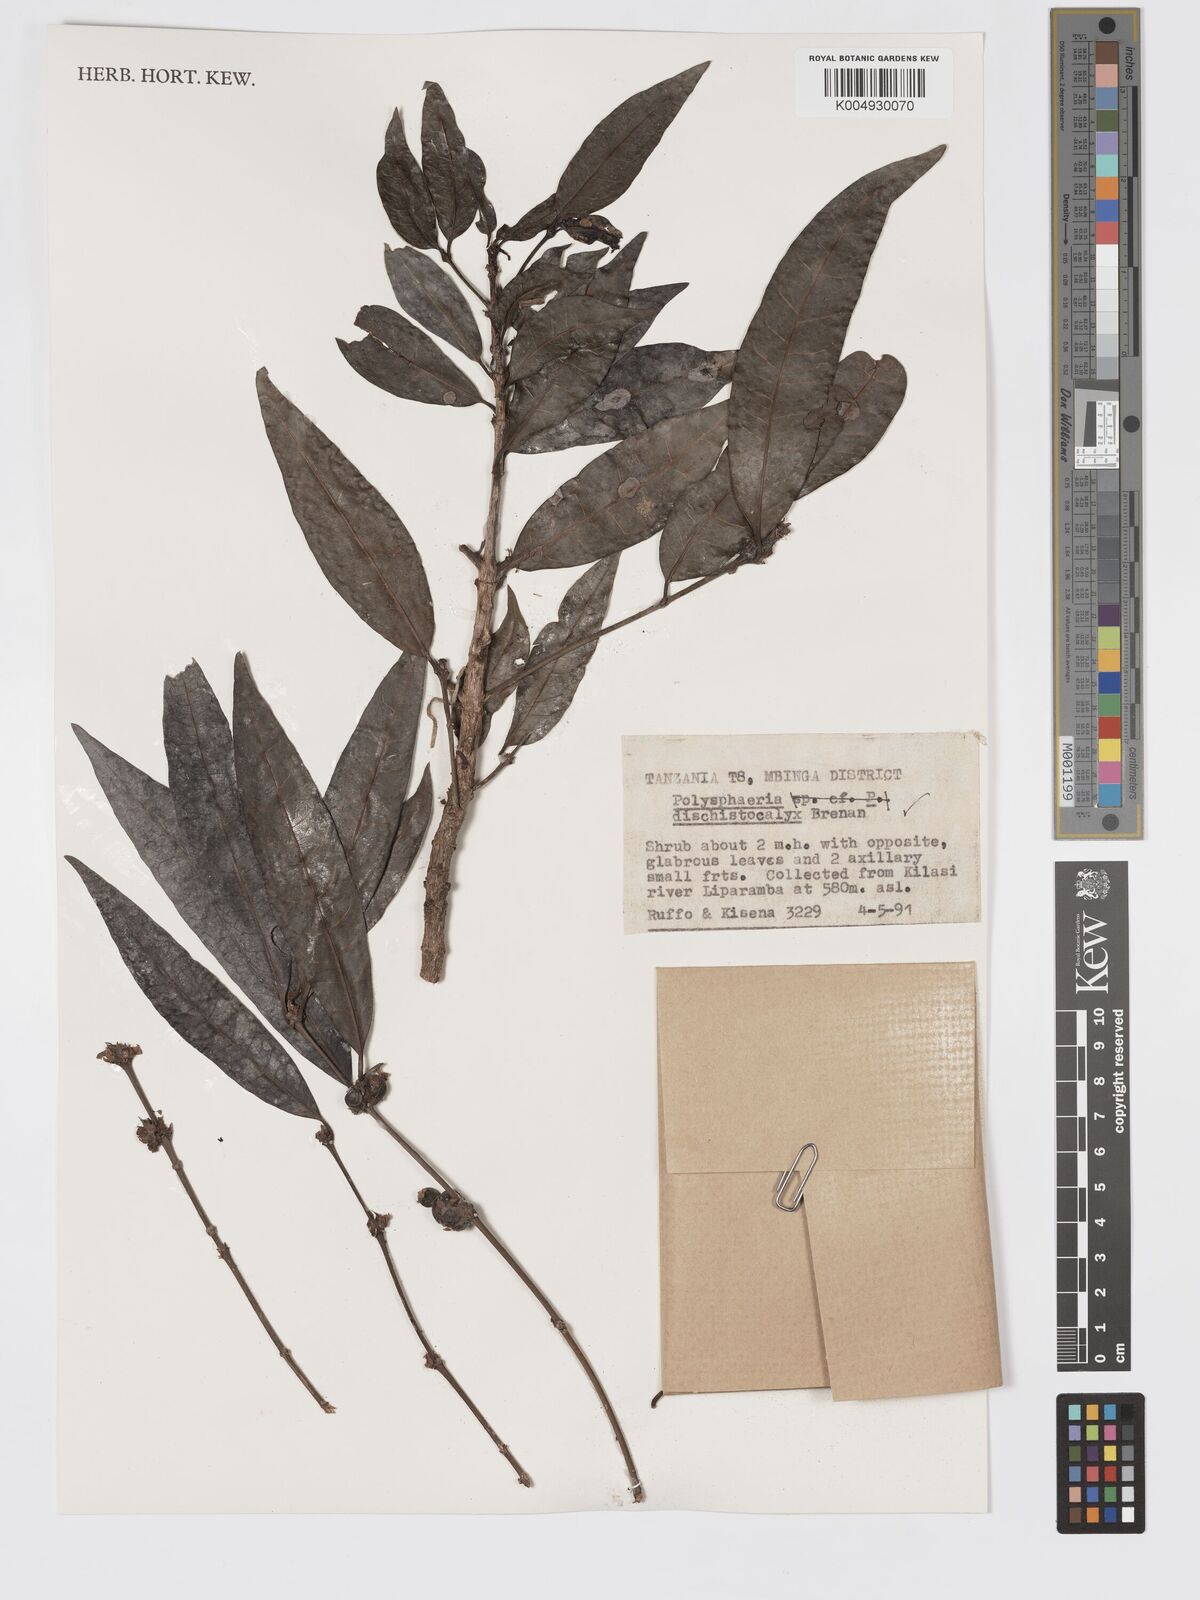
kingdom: Plantae
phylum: Tracheophyta
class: Magnoliopsida
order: Gentianales
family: Rubiaceae
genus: Polysphaeria
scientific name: Polysphaeria dischistocalyx
